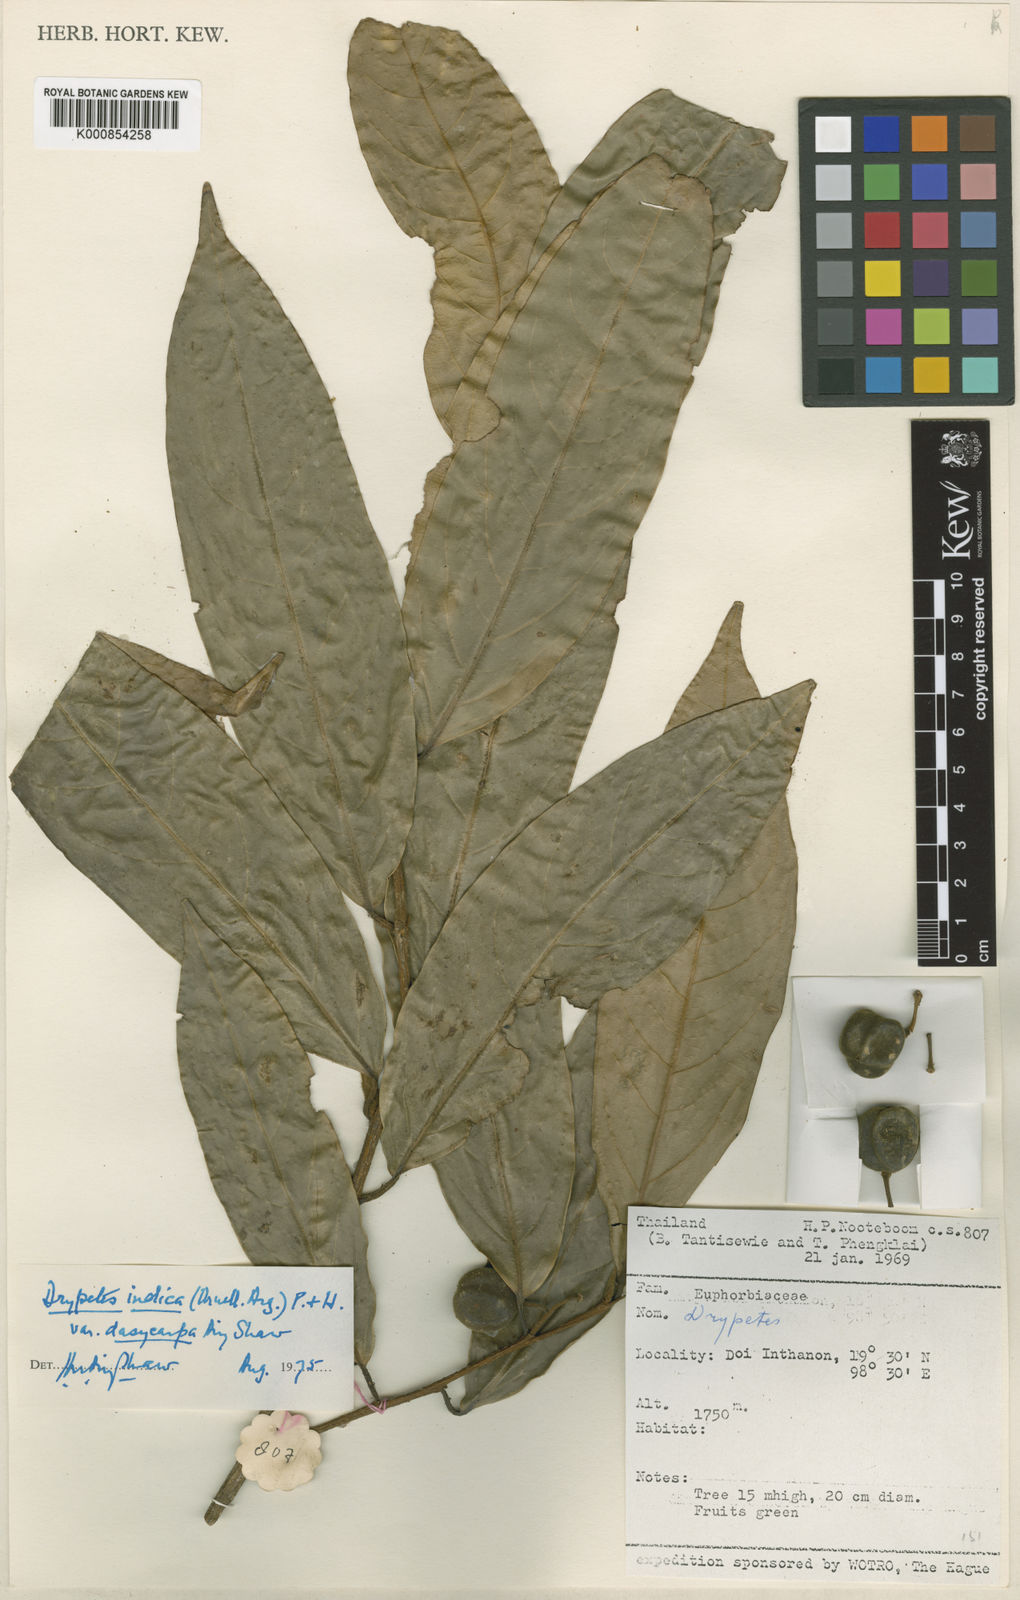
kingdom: Plantae
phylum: Tracheophyta
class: Magnoliopsida
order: Malpighiales
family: Putranjivaceae
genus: Drypetes
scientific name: Drypetes
